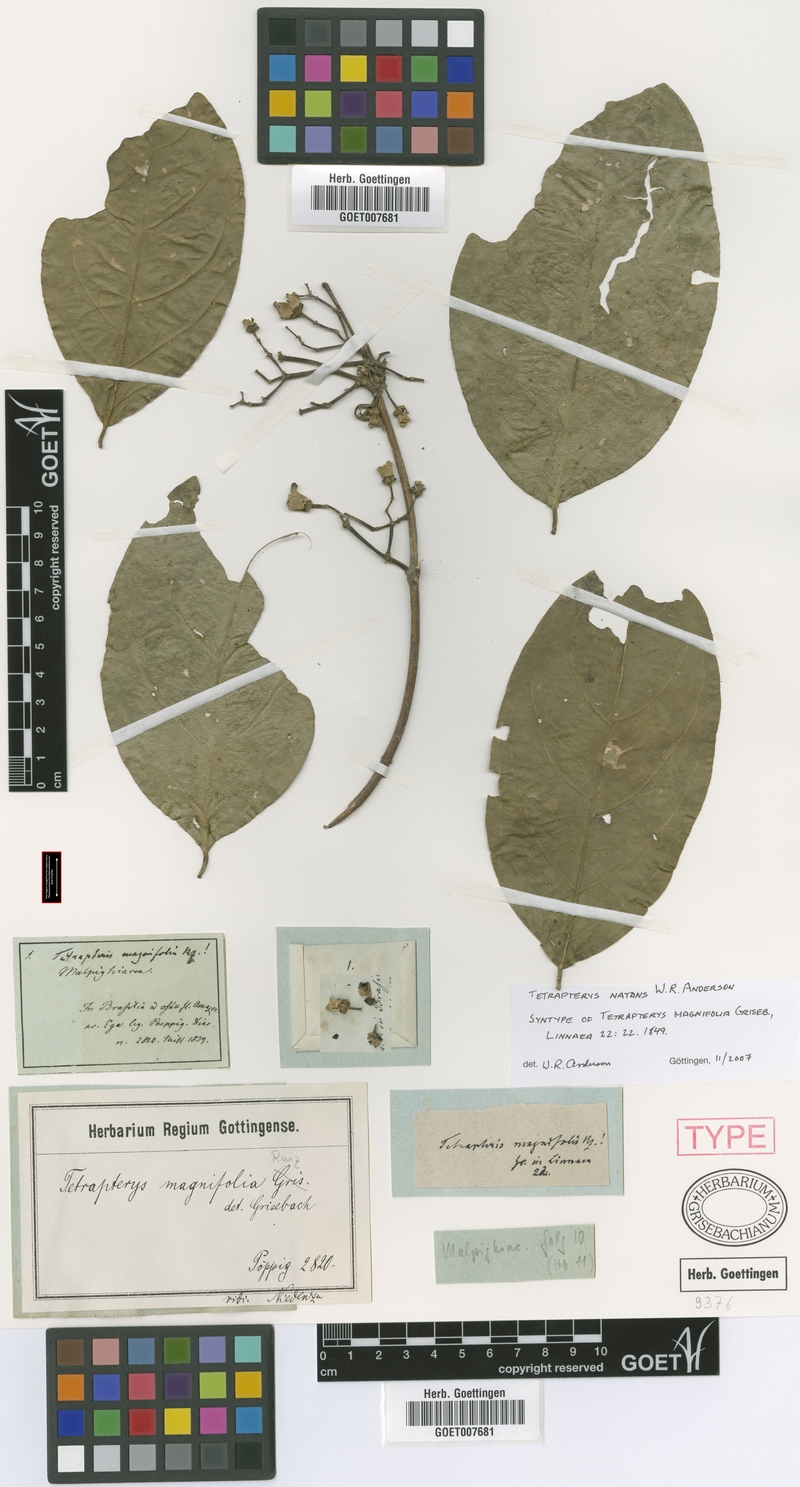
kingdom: Plantae
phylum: Tracheophyta
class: Magnoliopsida
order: Malpighiales
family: Malpighiaceae
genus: Tetrapterys
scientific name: Tetrapterys natans
